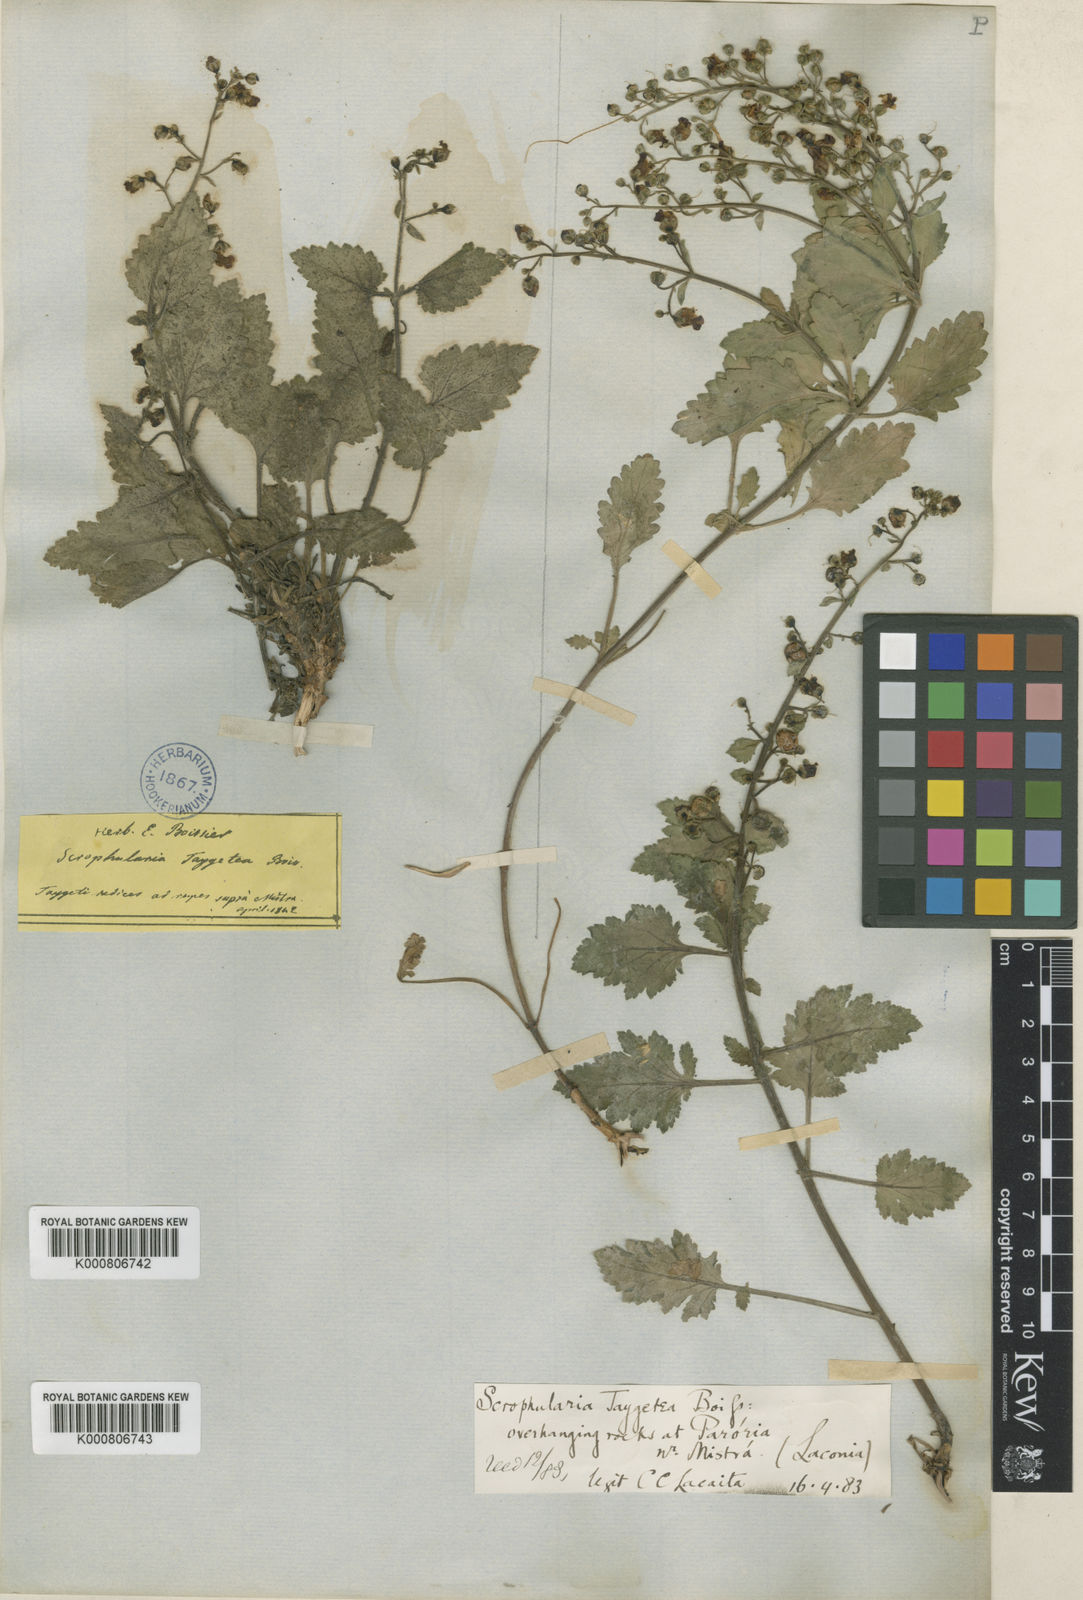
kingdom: Plantae
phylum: Tracheophyta
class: Magnoliopsida
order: Lamiales
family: Scrophulariaceae
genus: Scrophularia
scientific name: Scrophularia heterophylla
